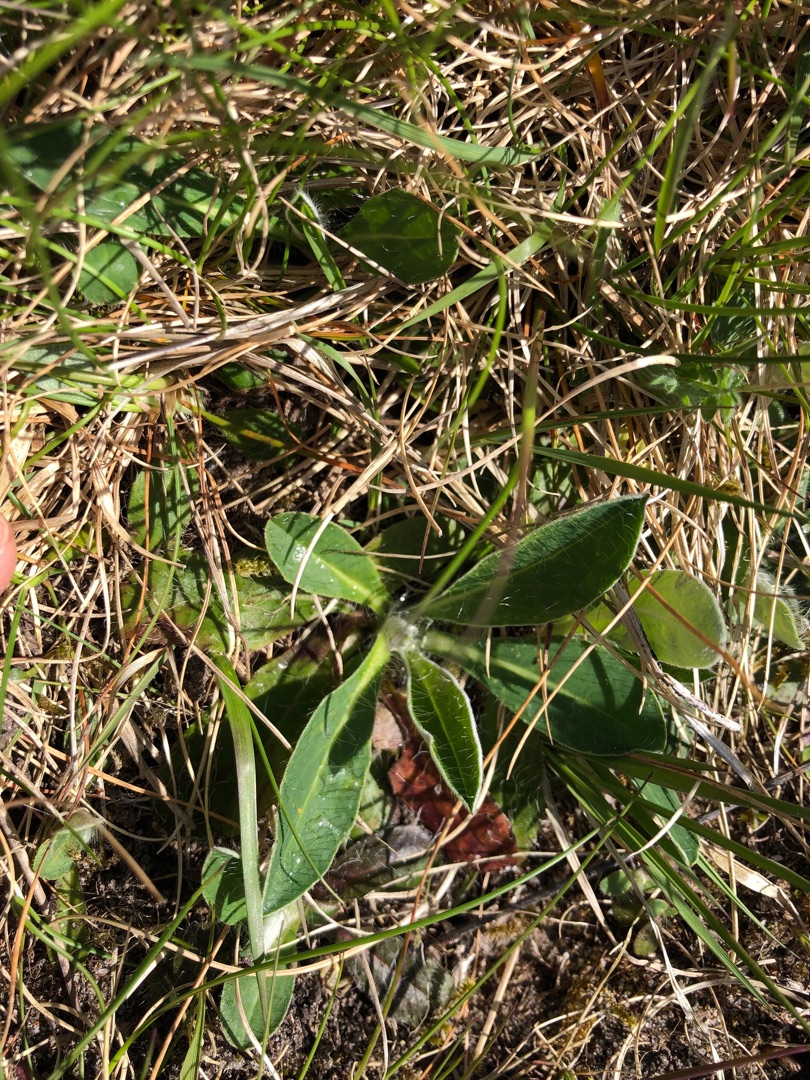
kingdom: Plantae
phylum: Tracheophyta
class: Magnoliopsida
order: Asterales
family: Asteraceae
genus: Pilosella
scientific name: Pilosella officinarum
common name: Håret høgeurt
